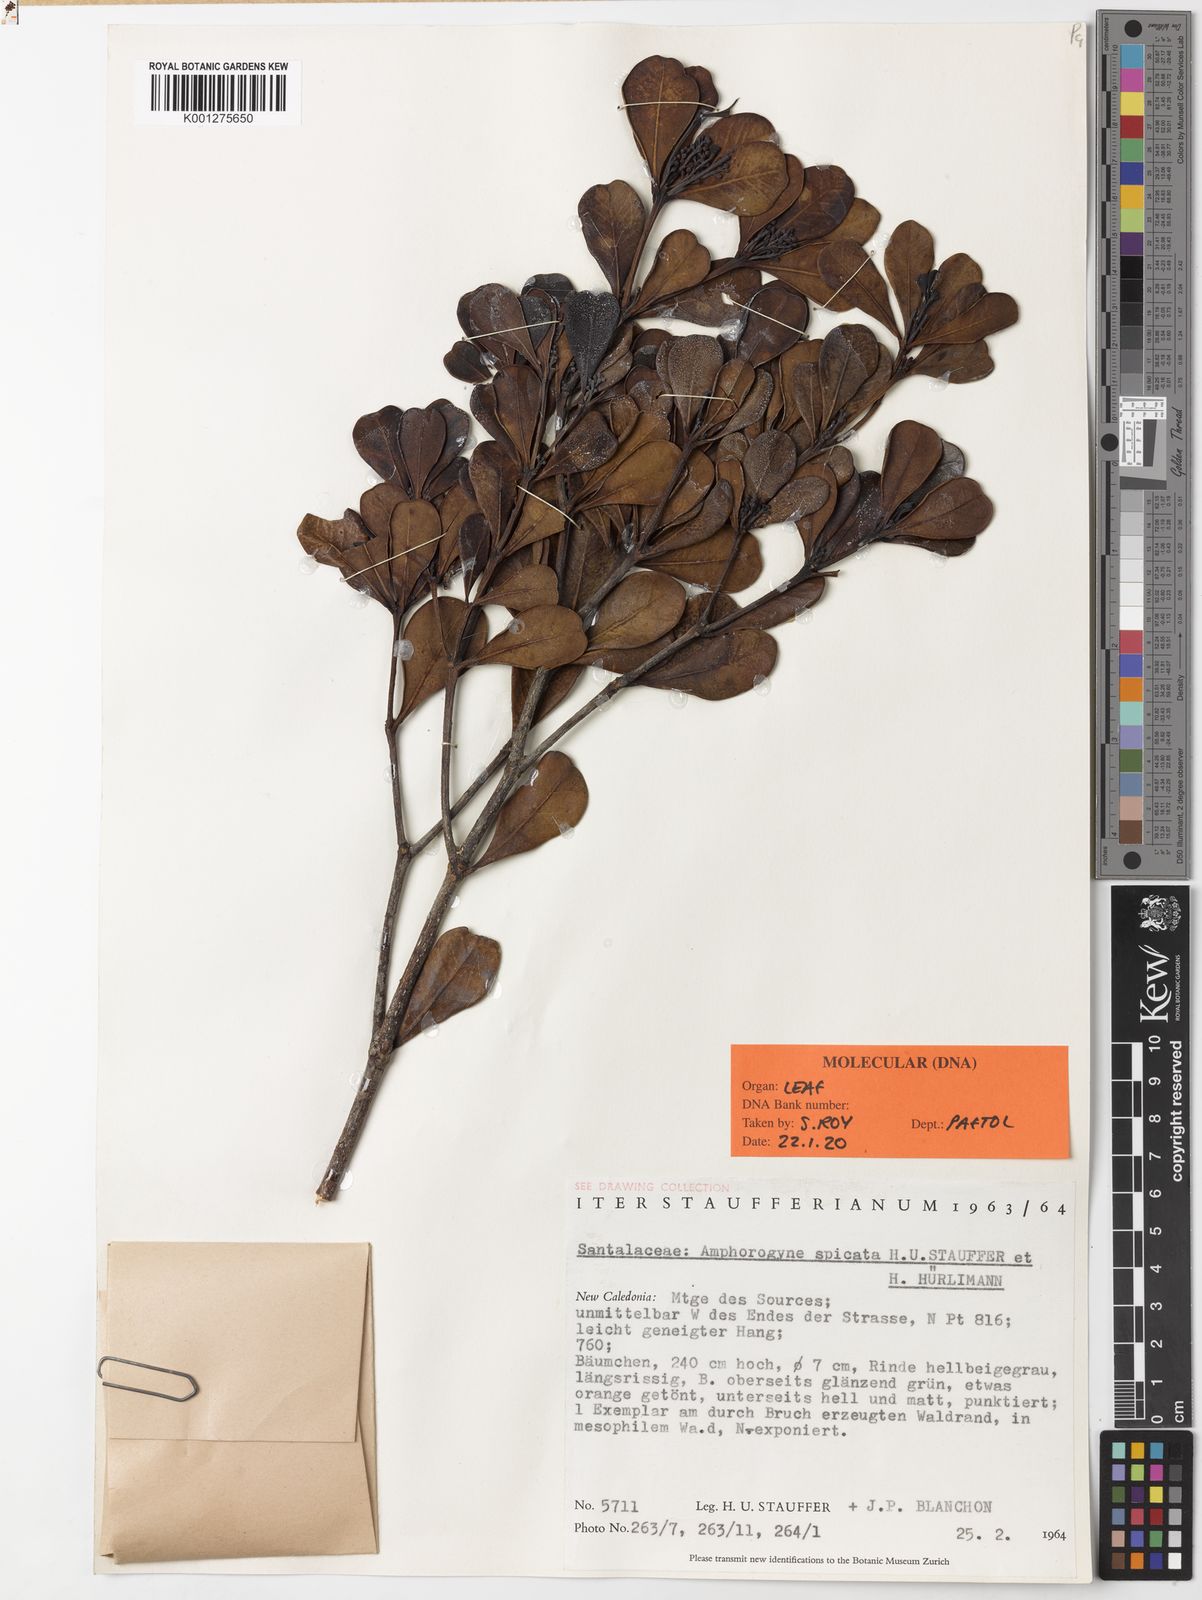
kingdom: Plantae
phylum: Tracheophyta
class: Magnoliopsida
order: Santalales
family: Amphorogynaceae
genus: Amphorogyne
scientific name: Amphorogyne
